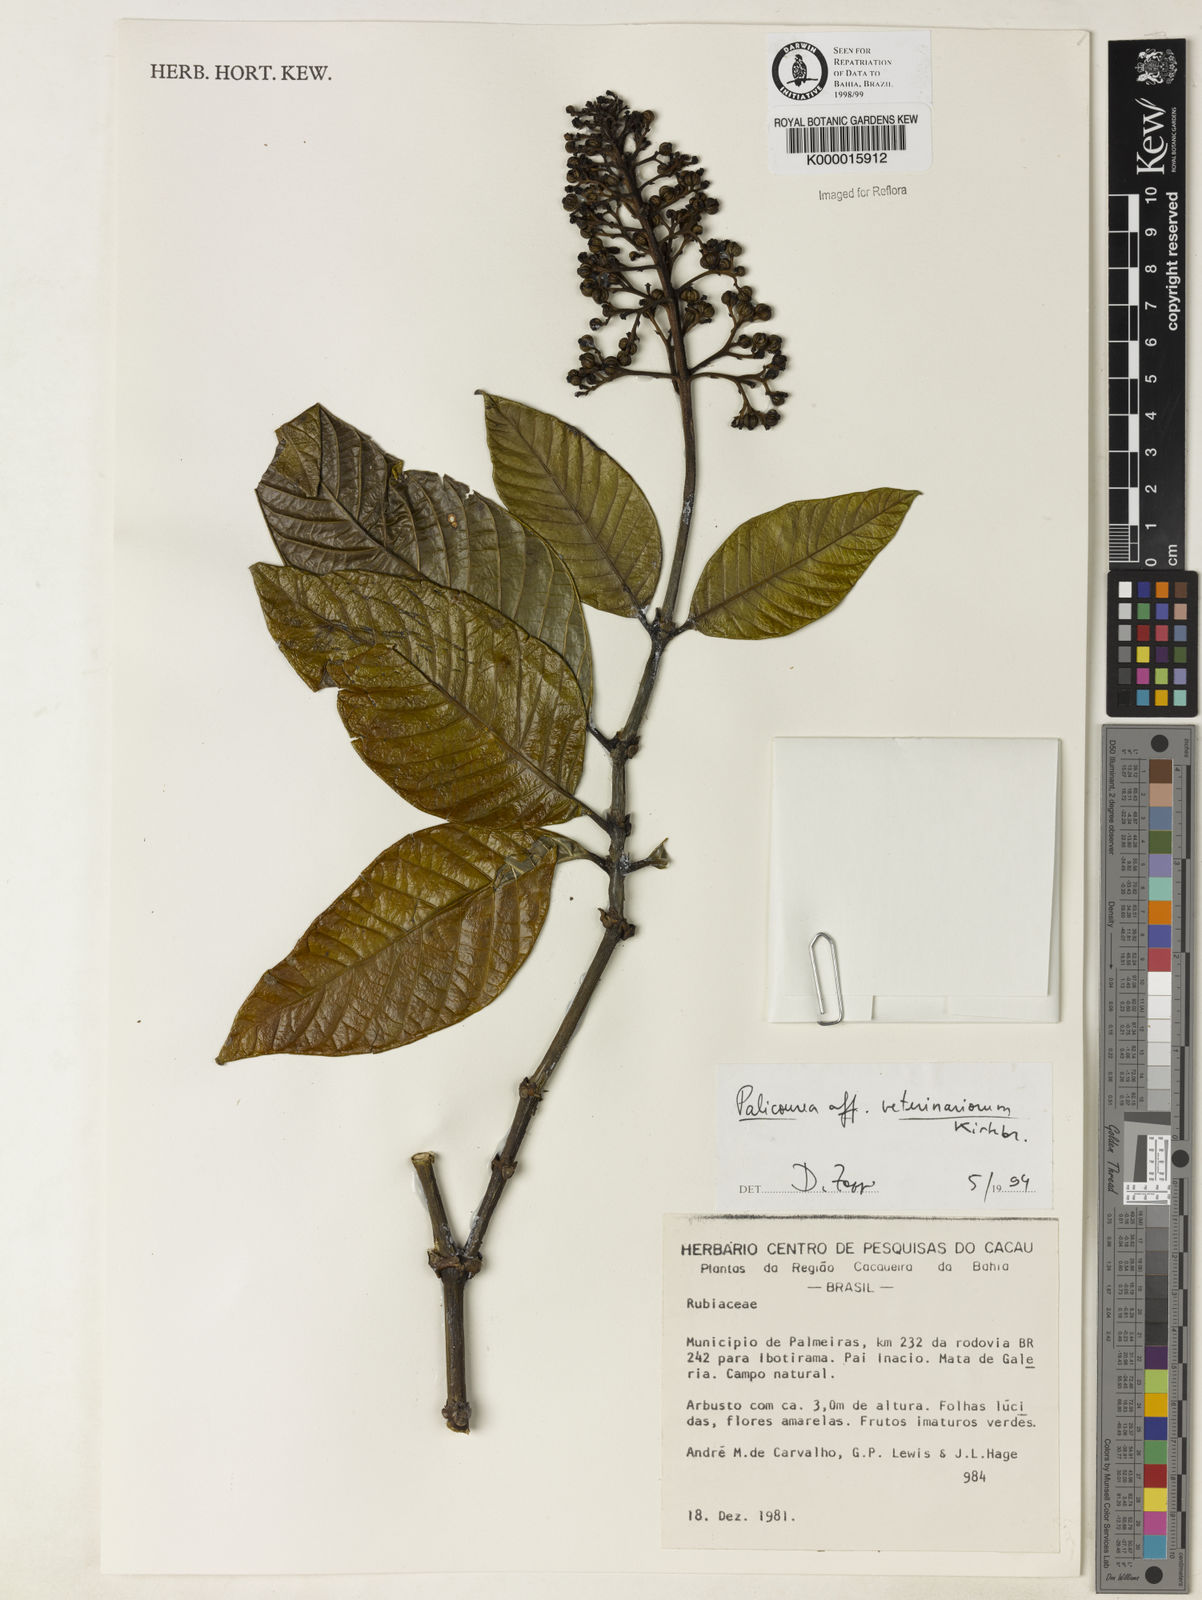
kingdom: Plantae
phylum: Tracheophyta
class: Magnoliopsida
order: Gentianales
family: Rubiaceae
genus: Palicourea
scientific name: Palicourea veterinariorum
